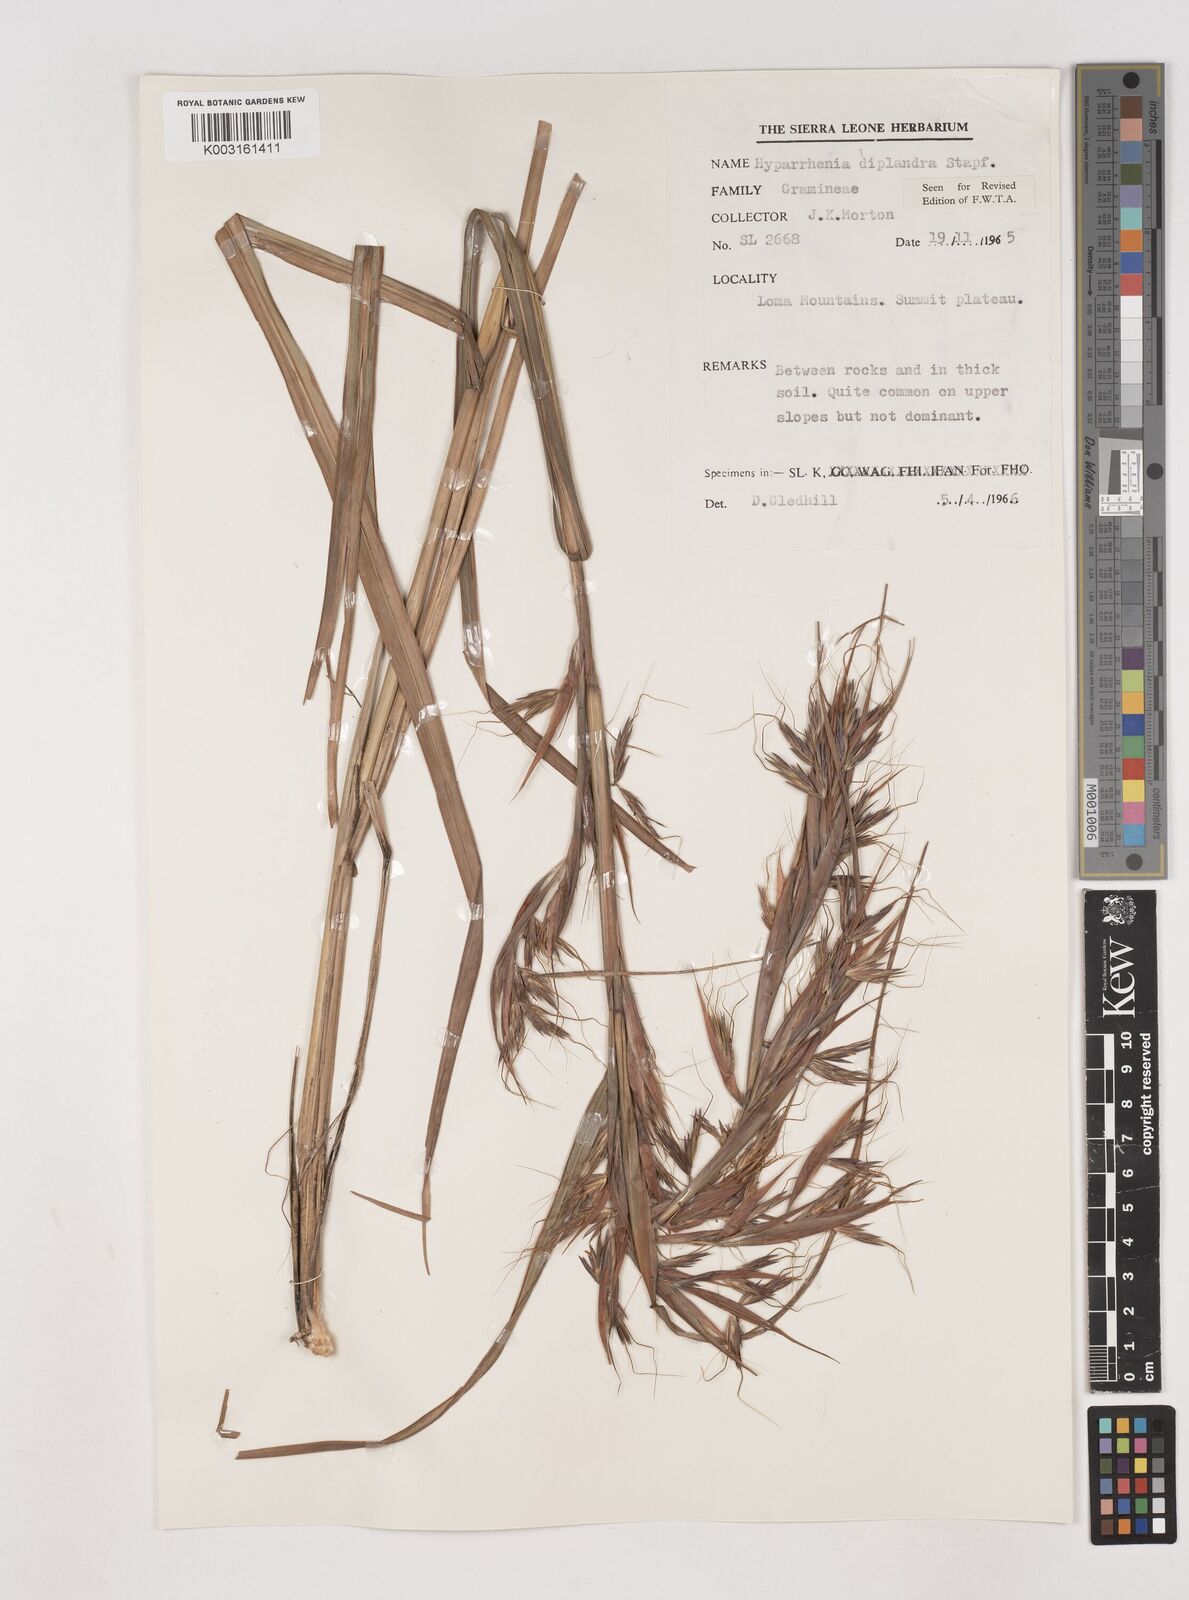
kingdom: Plantae
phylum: Tracheophyta
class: Liliopsida
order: Poales
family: Poaceae
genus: Hyparrhenia
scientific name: Hyparrhenia diplandra
